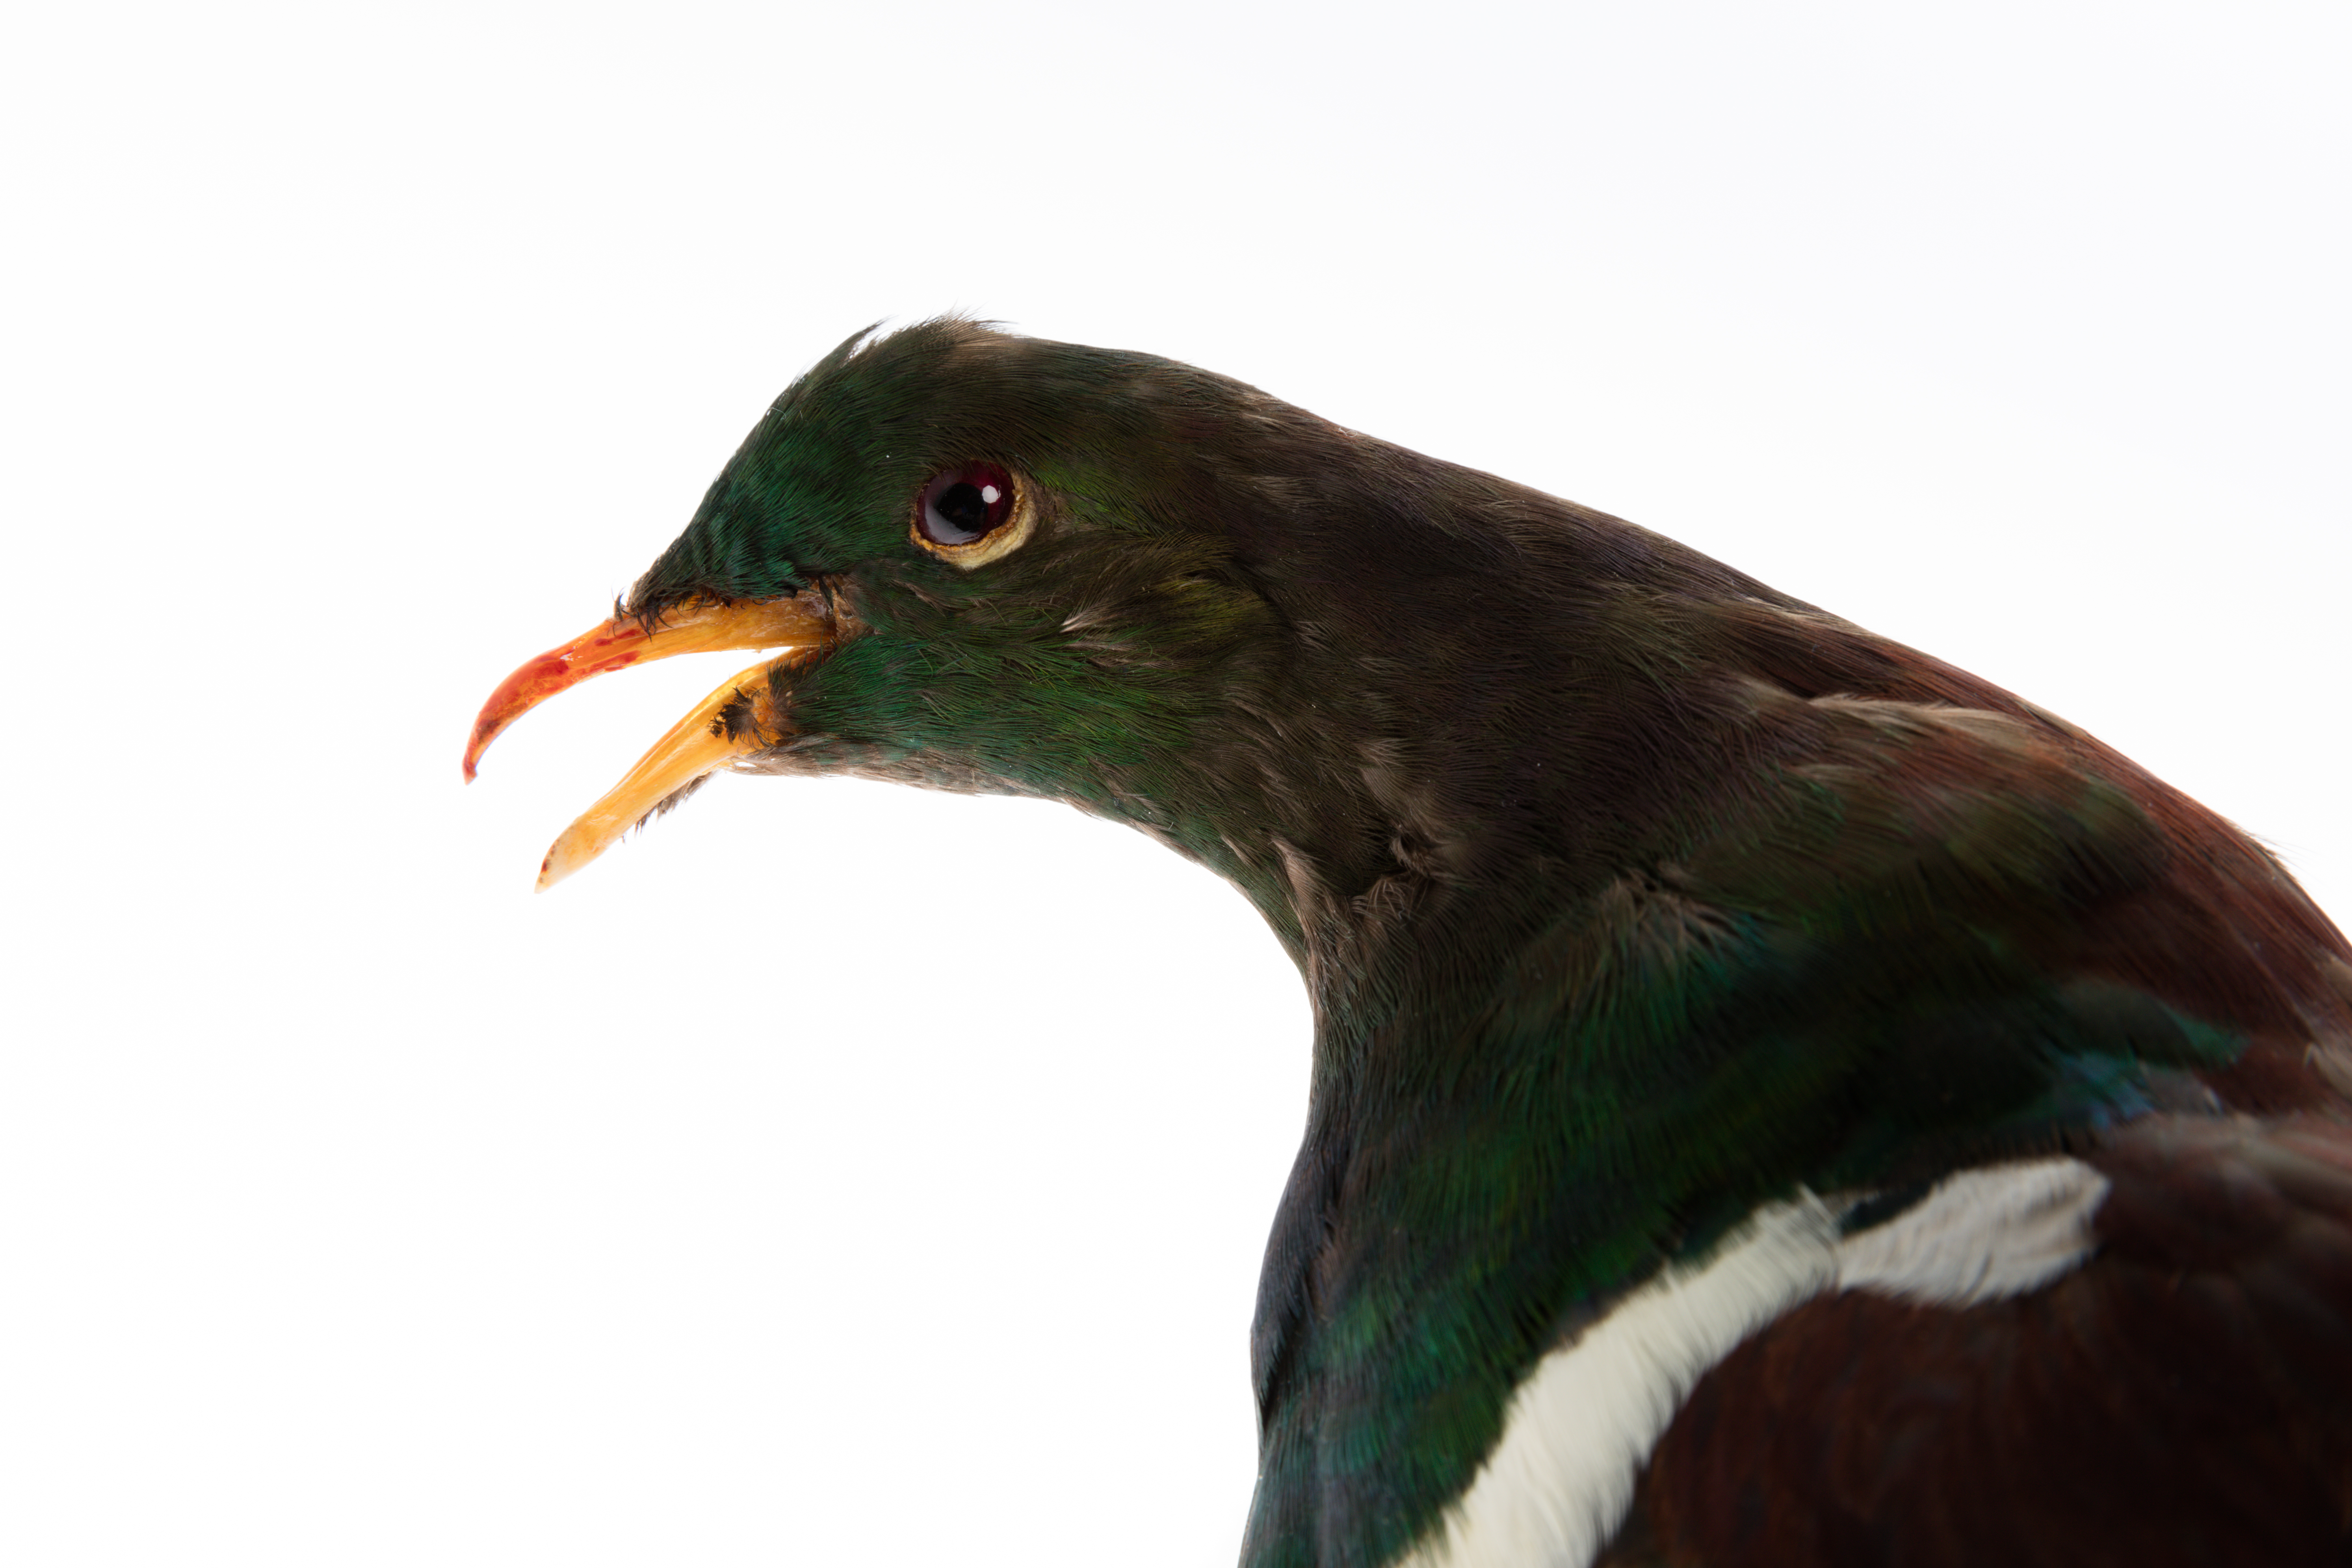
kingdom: Animalia
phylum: Chordata
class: Aves
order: Columbiformes
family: Columbidae
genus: Hemiphaga
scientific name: Hemiphaga novaeseelandiae
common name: New zealand pigeon
